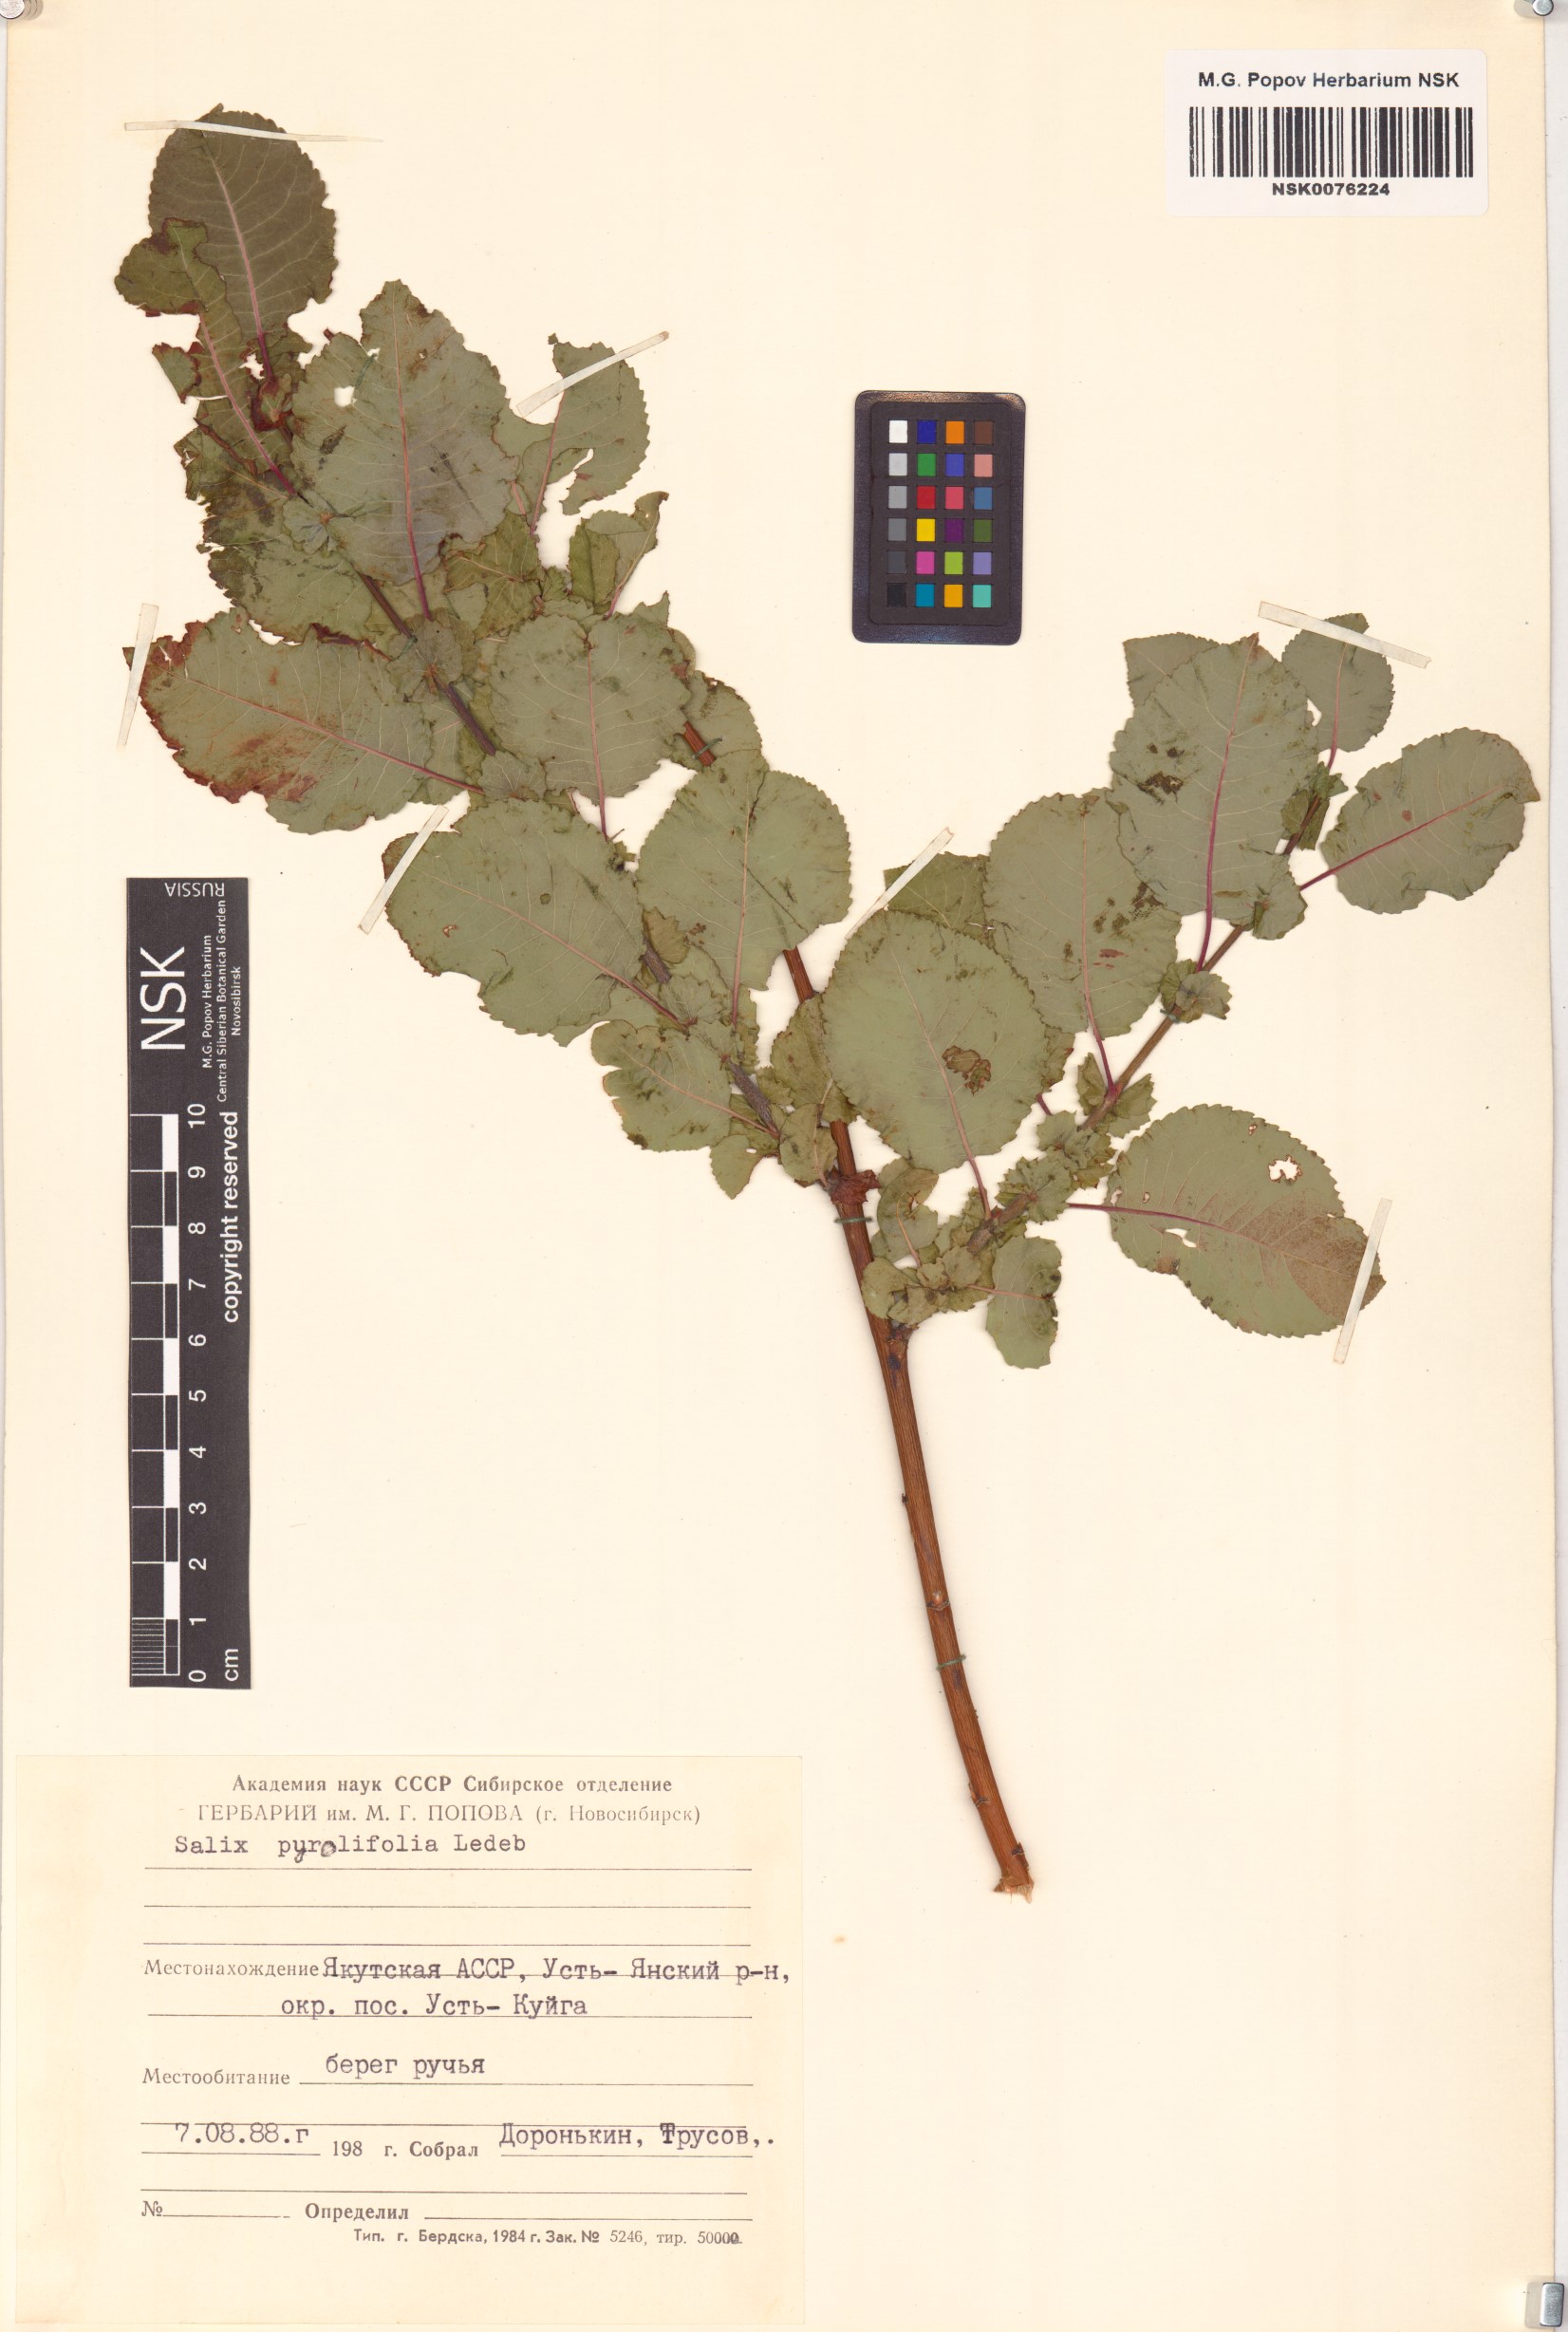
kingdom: Plantae
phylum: Tracheophyta
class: Magnoliopsida
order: Malpighiales
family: Salicaceae
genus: Salix
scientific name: Salix pyrolifolia
